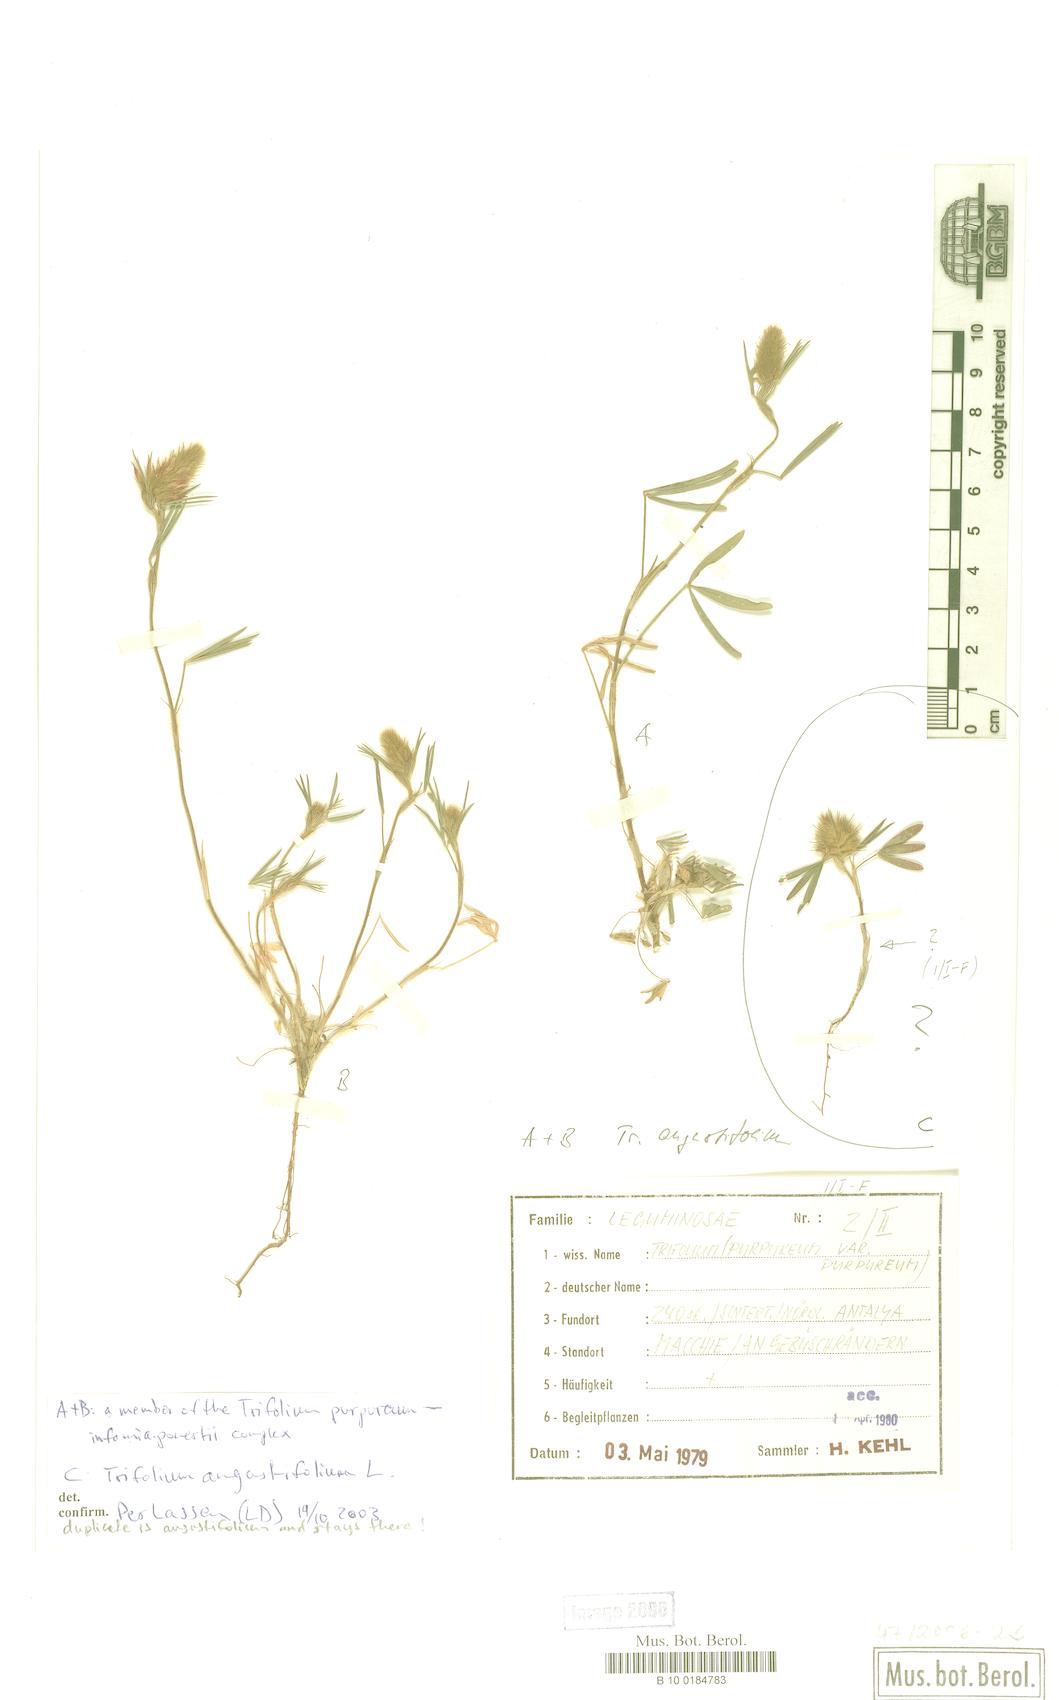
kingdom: Plantae
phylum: Tracheophyta
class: Magnoliopsida
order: Fabales
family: Fabaceae
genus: Trifolium
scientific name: Trifolium angustifolium
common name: Narrow clover
